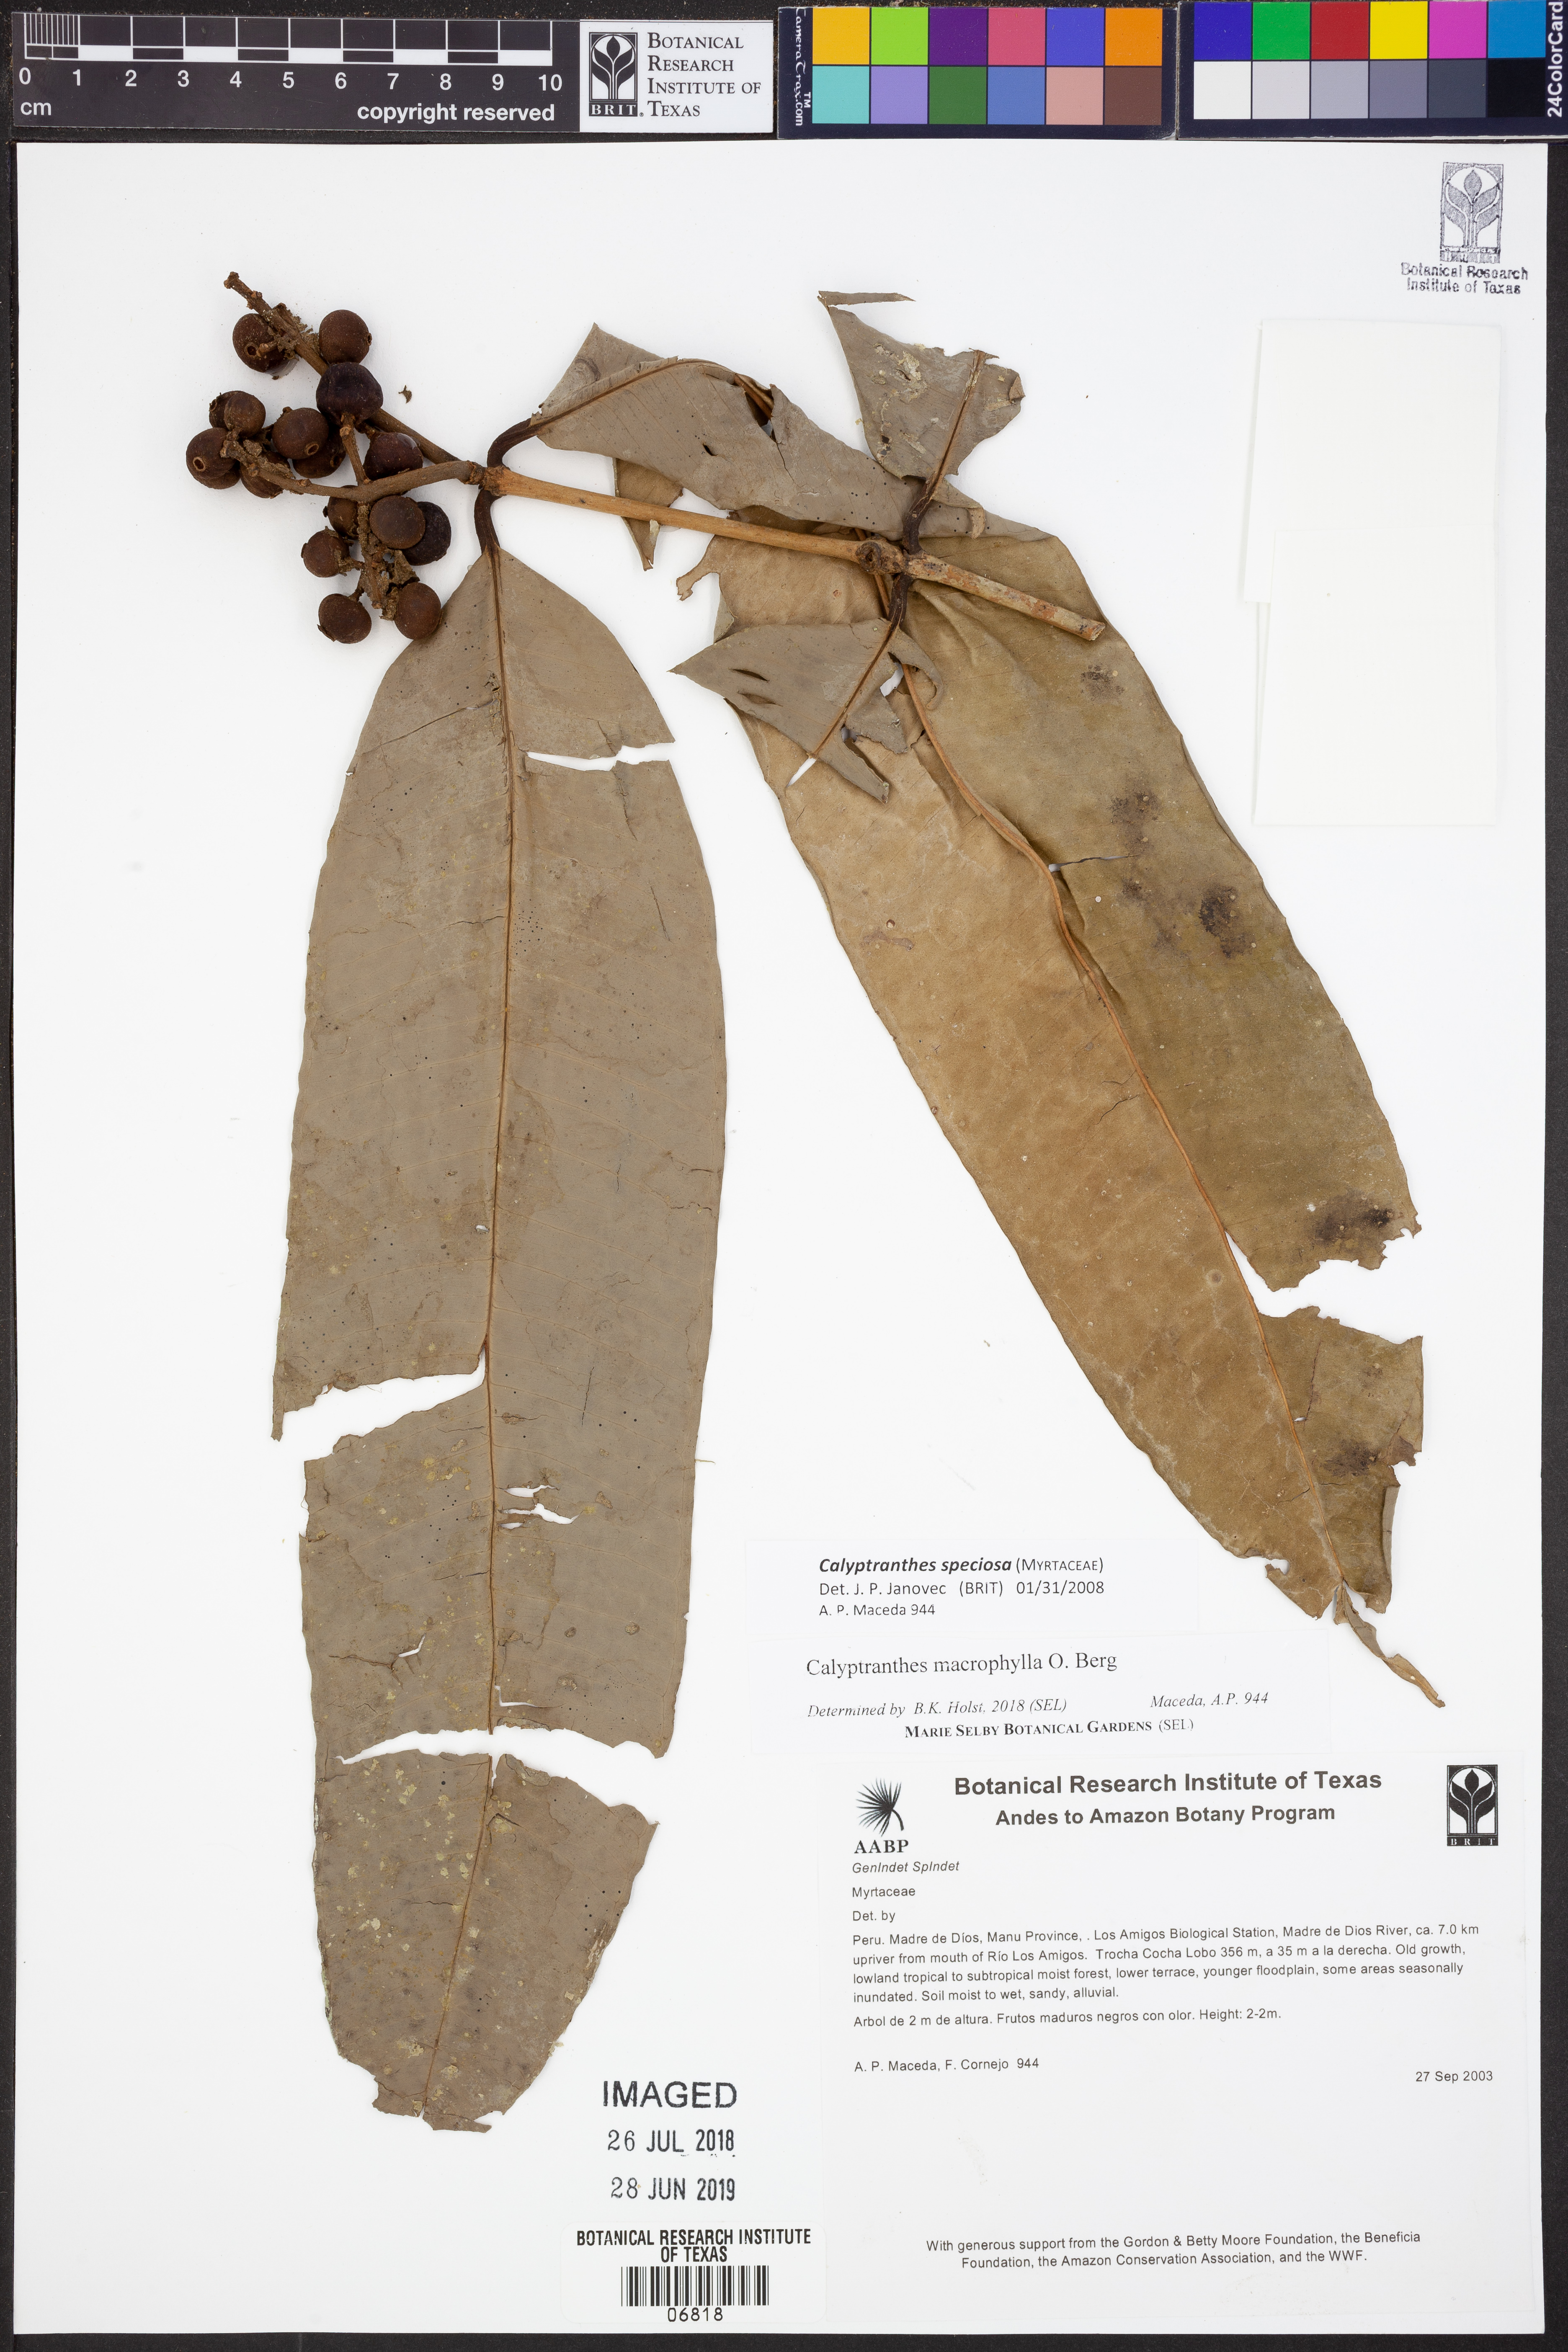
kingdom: Plantae
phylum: Tracheophyta
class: Magnoliopsida
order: Myrtales
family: Myrtaceae
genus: Myrcia
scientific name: Myrcia neomacrophylla
